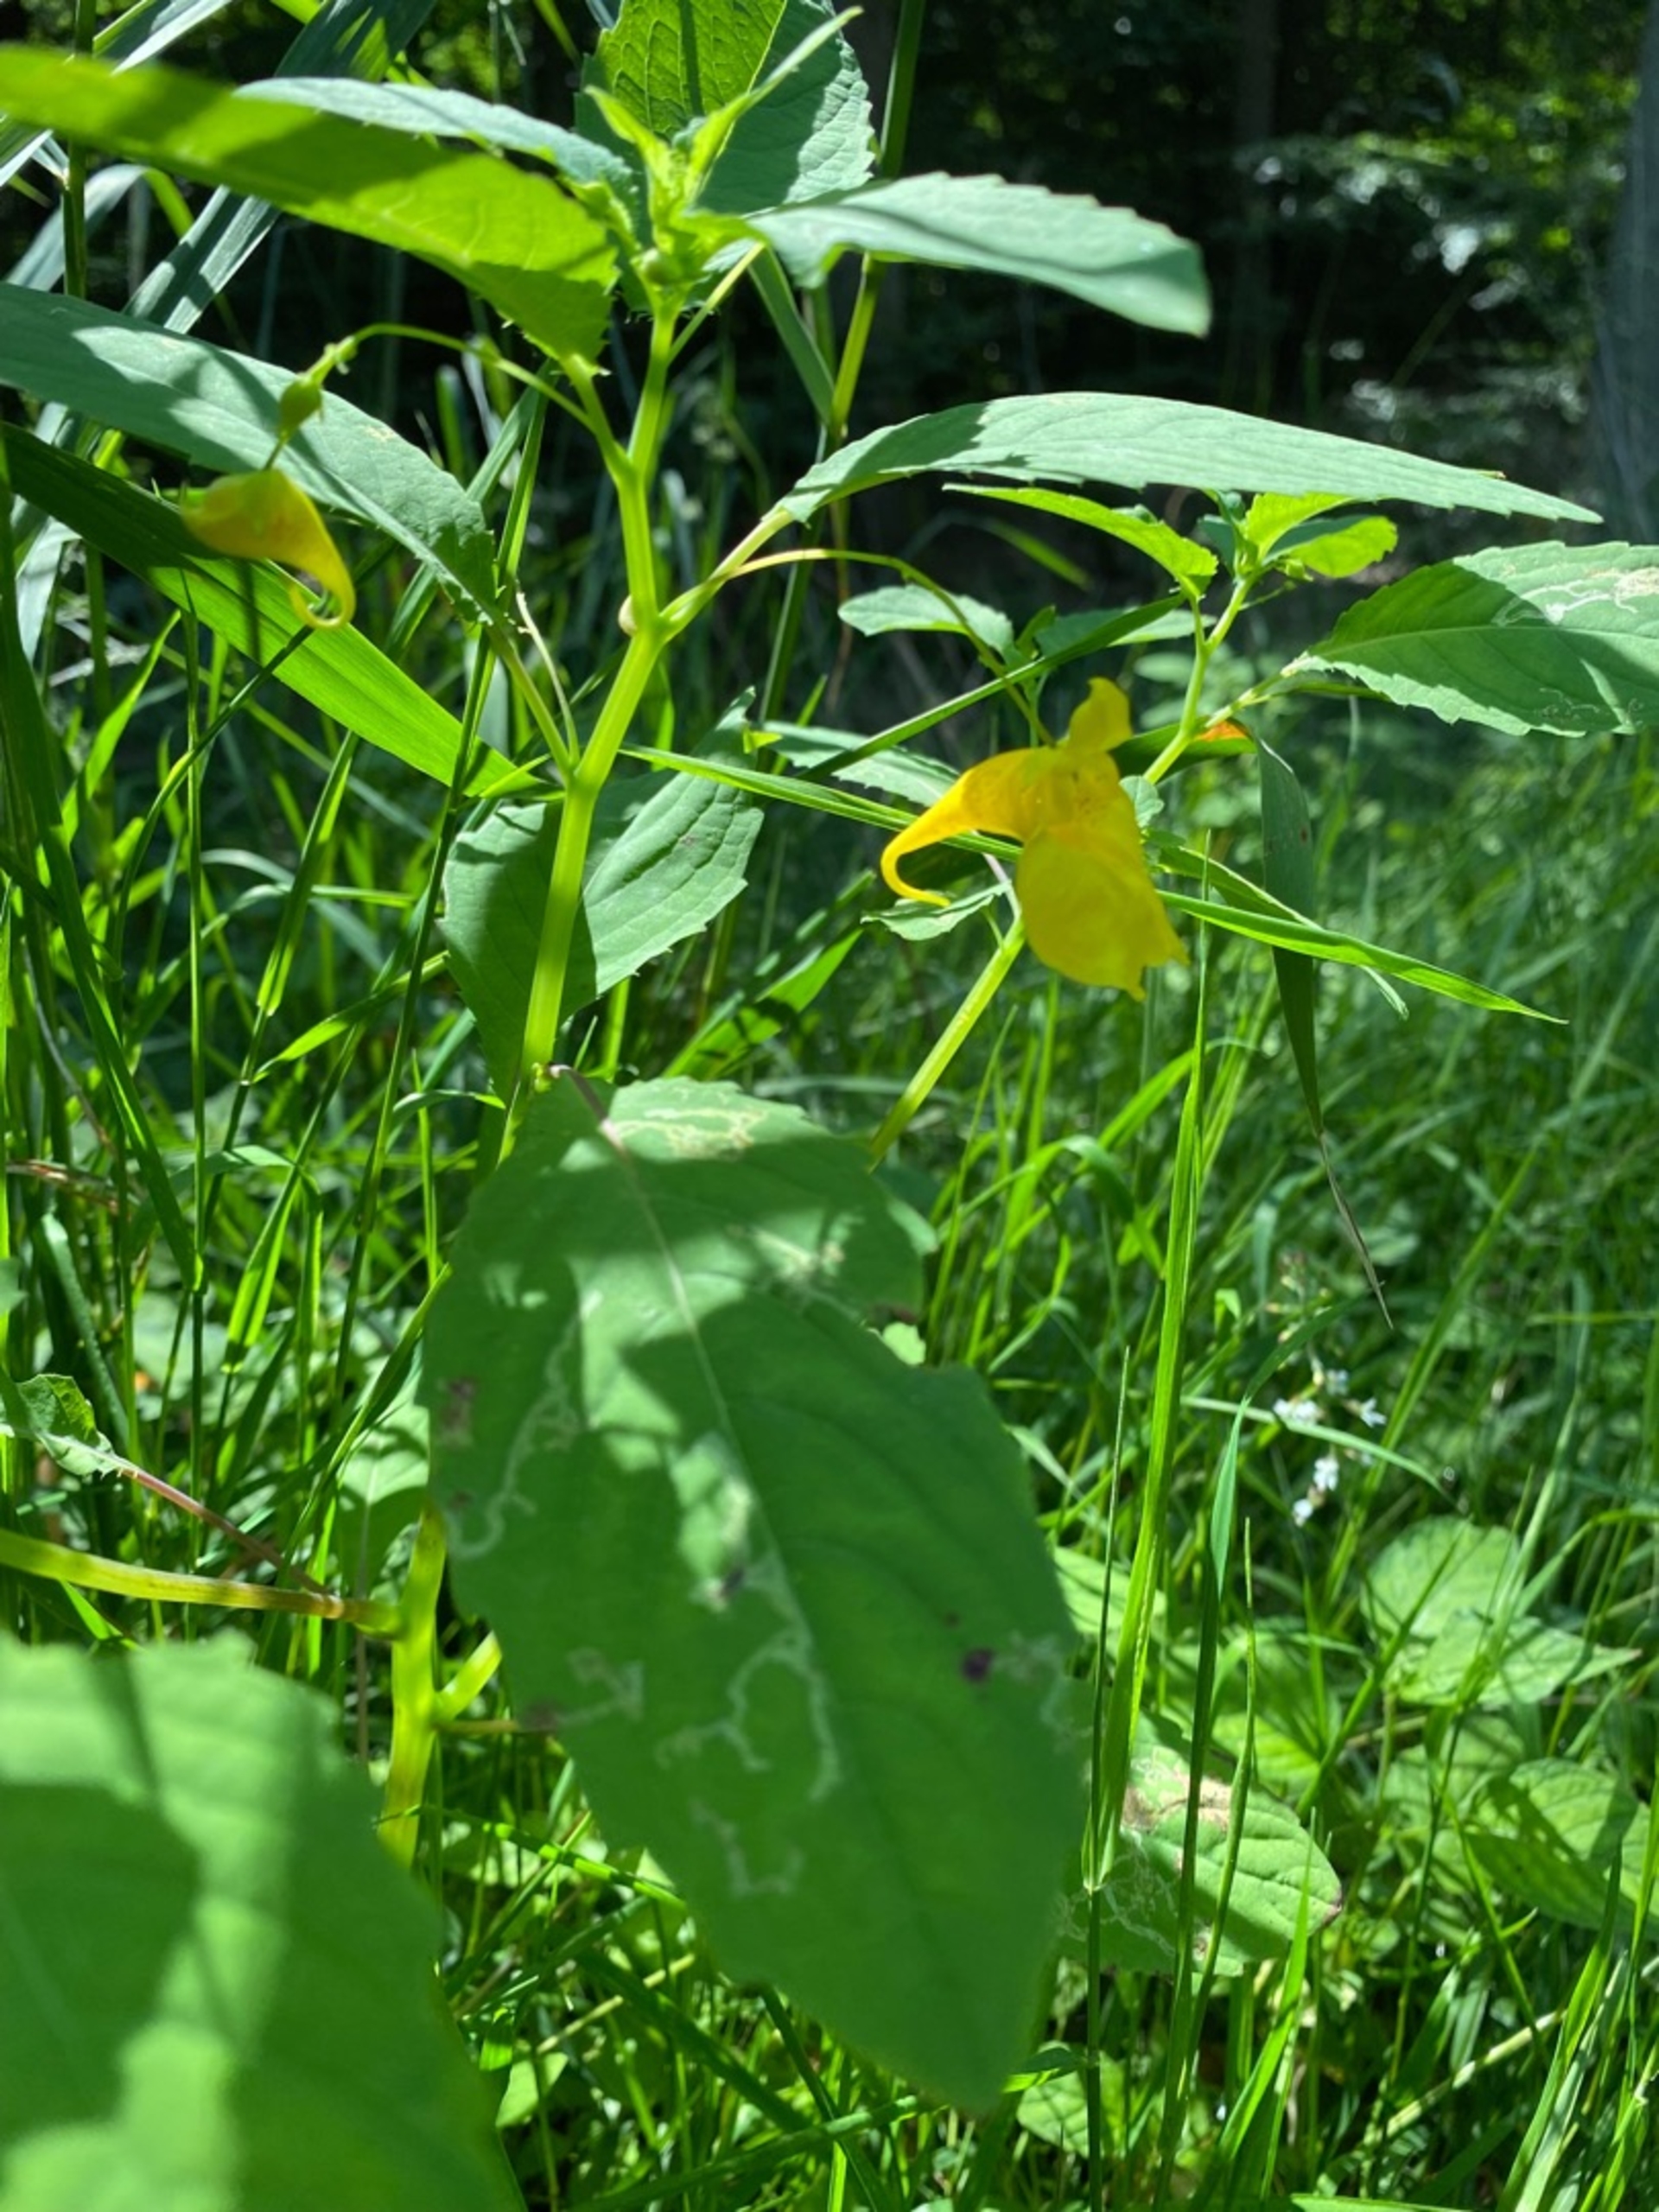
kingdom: Plantae
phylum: Tracheophyta
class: Magnoliopsida
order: Ericales
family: Balsaminaceae
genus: Impatiens
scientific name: Impatiens noli-tangere
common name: Spring-balsamin
